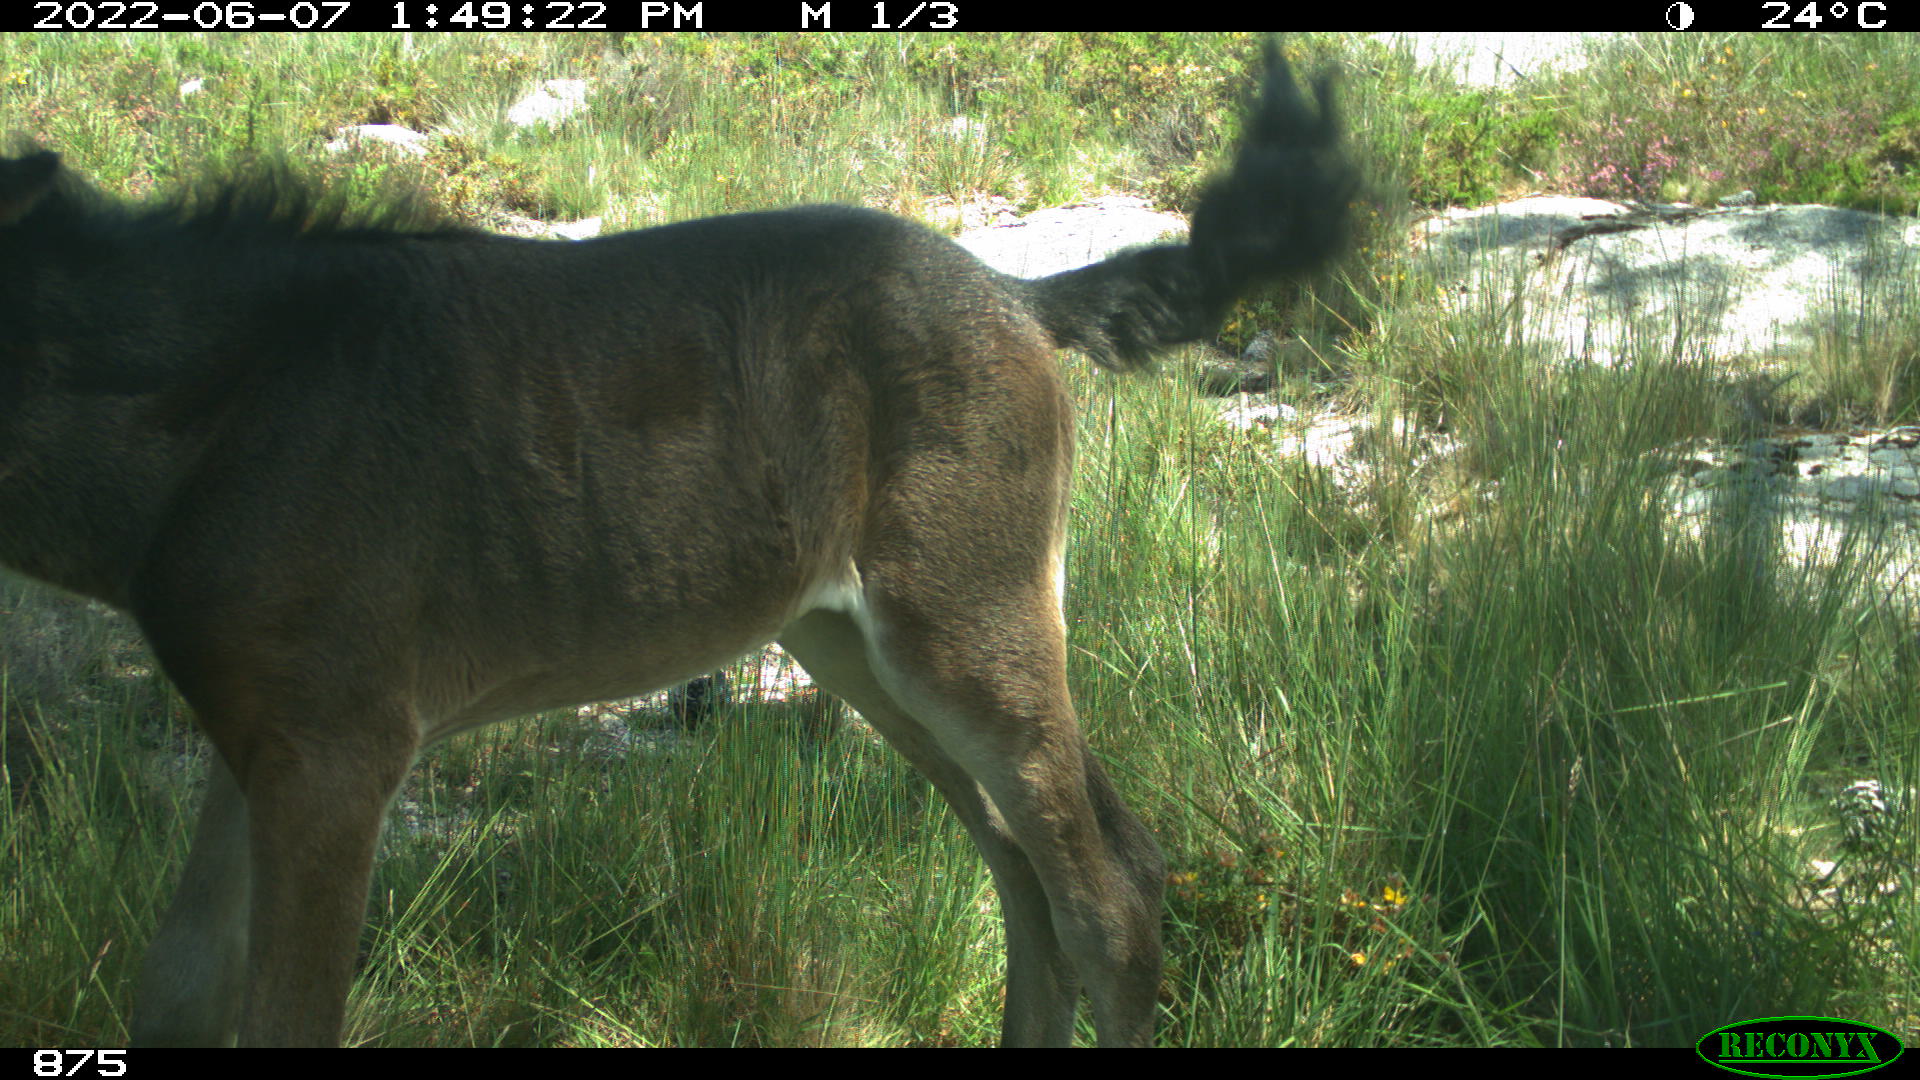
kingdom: Animalia
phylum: Chordata
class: Mammalia
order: Perissodactyla
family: Equidae
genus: Equus
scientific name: Equus caballus
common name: Horse
